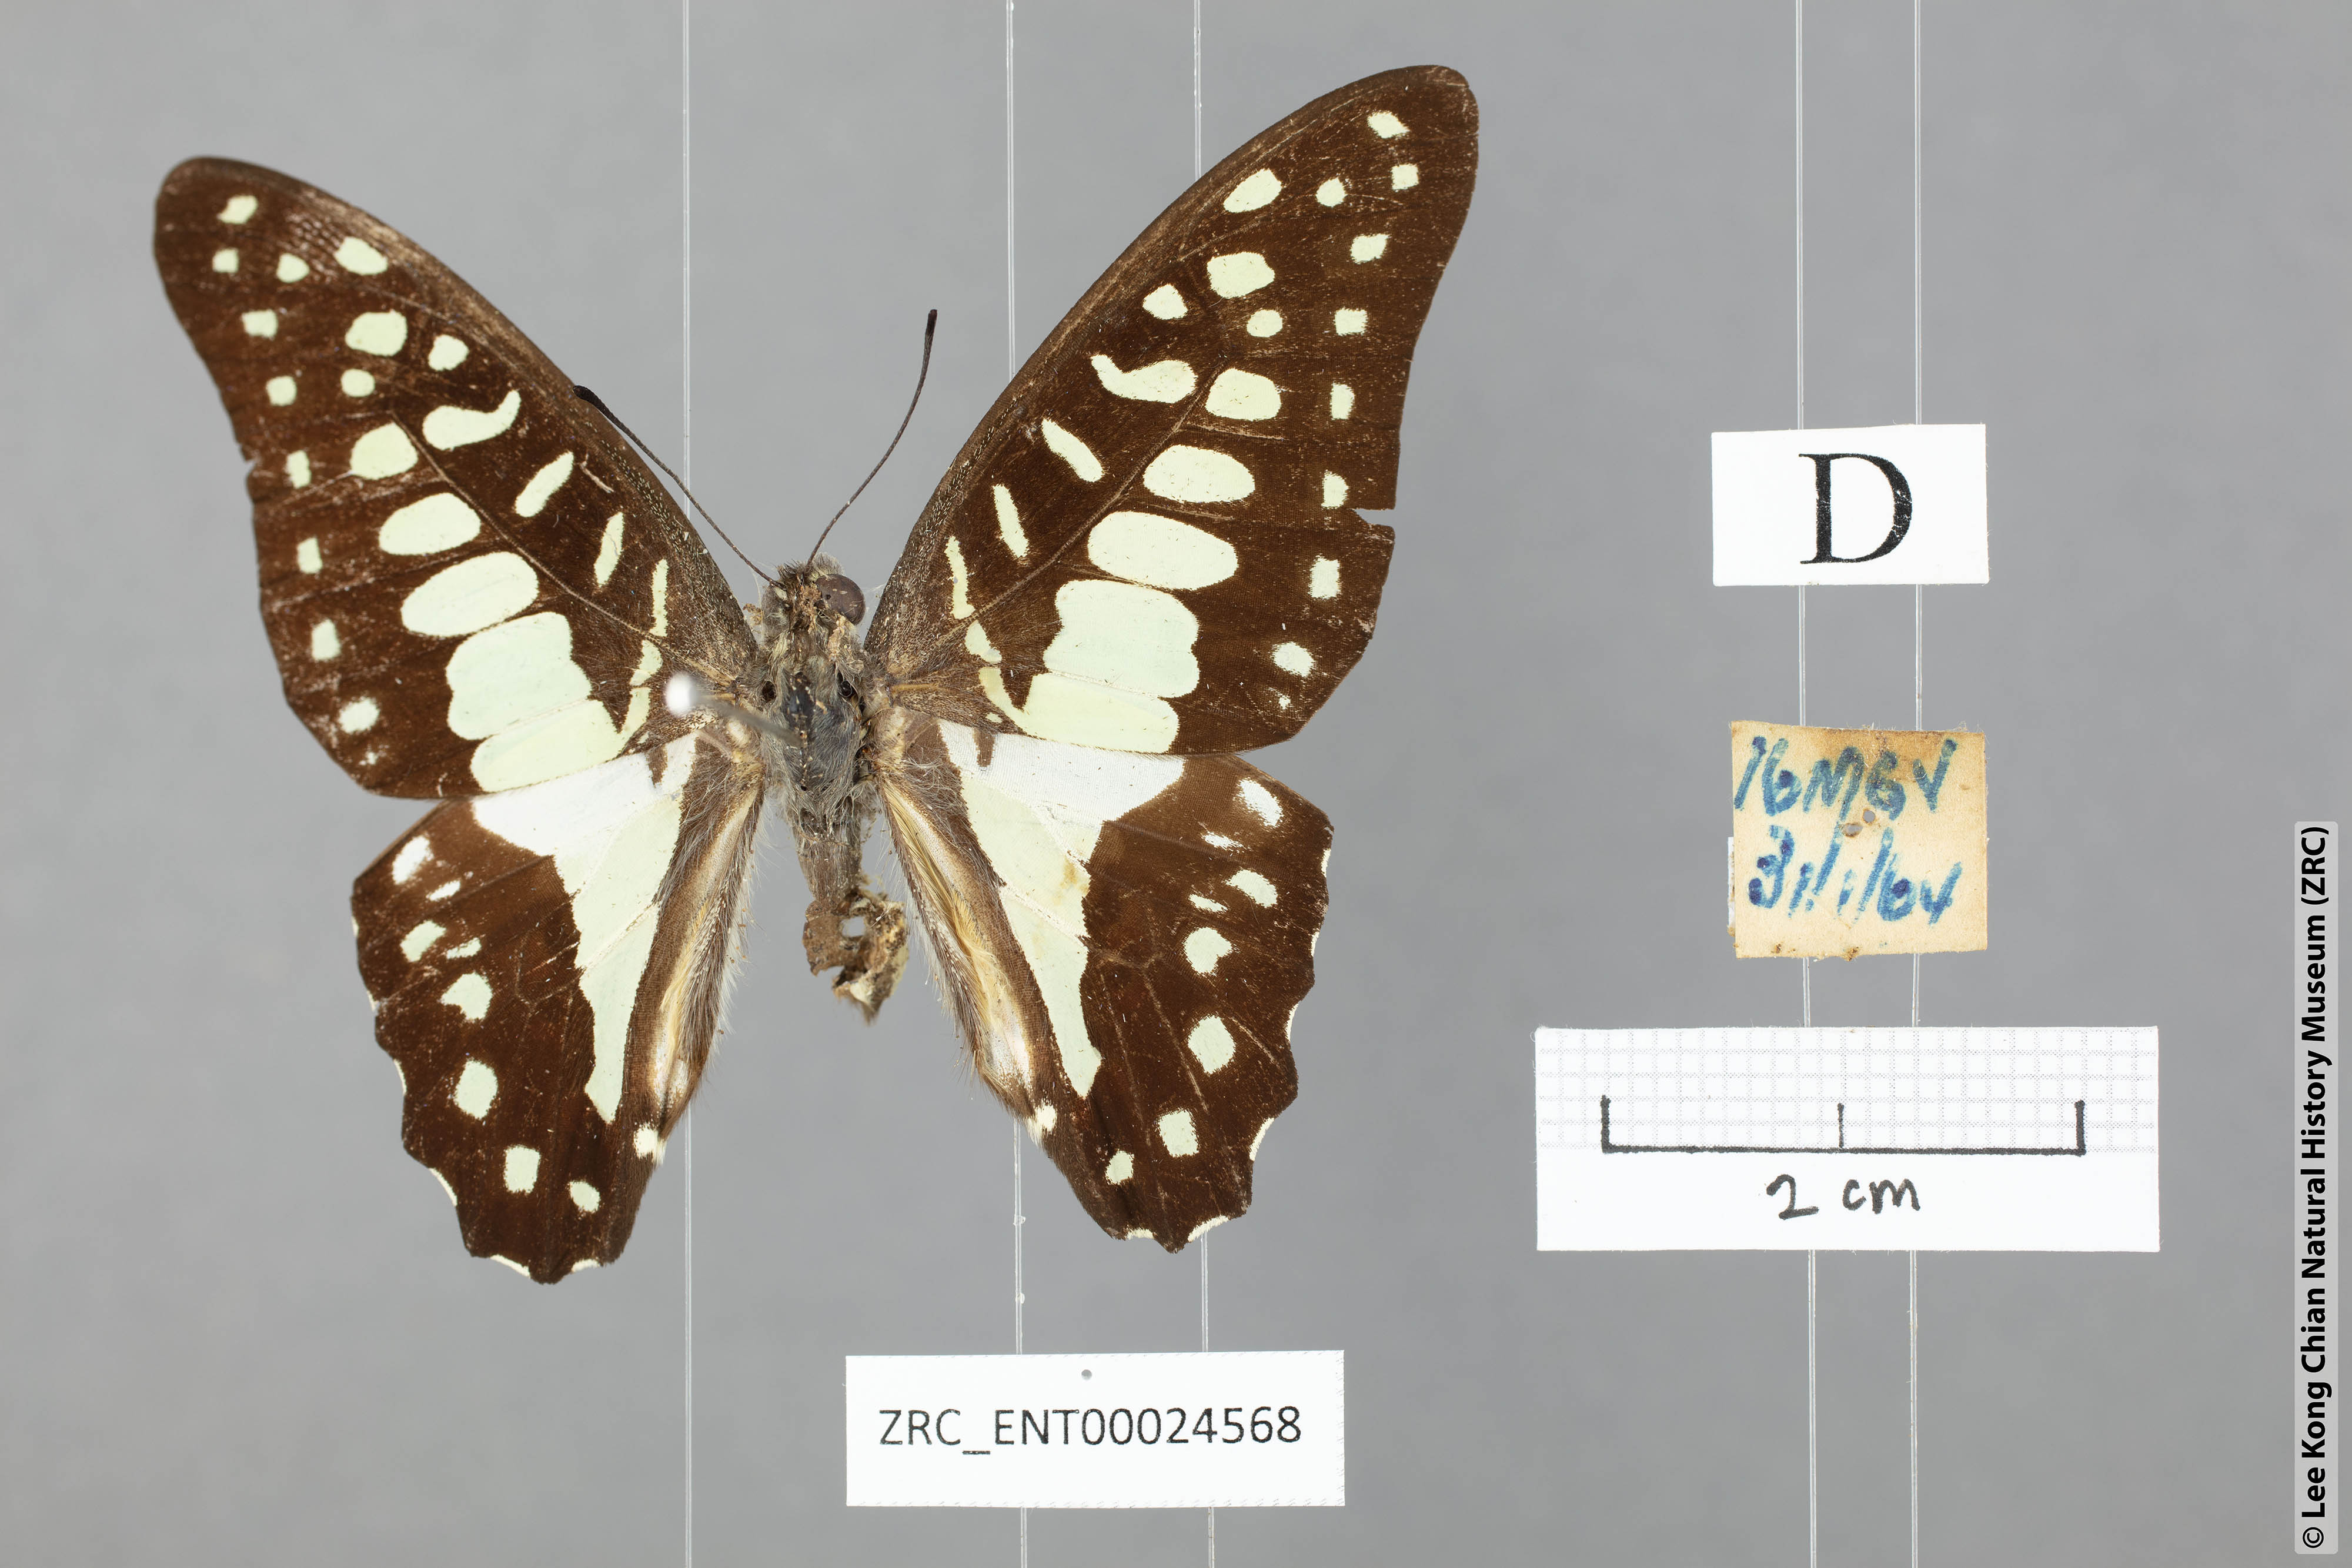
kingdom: Animalia
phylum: Arthropoda
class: Insecta
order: Lepidoptera
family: Papilionidae
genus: Graphium
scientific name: Graphium doson
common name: Common jay
